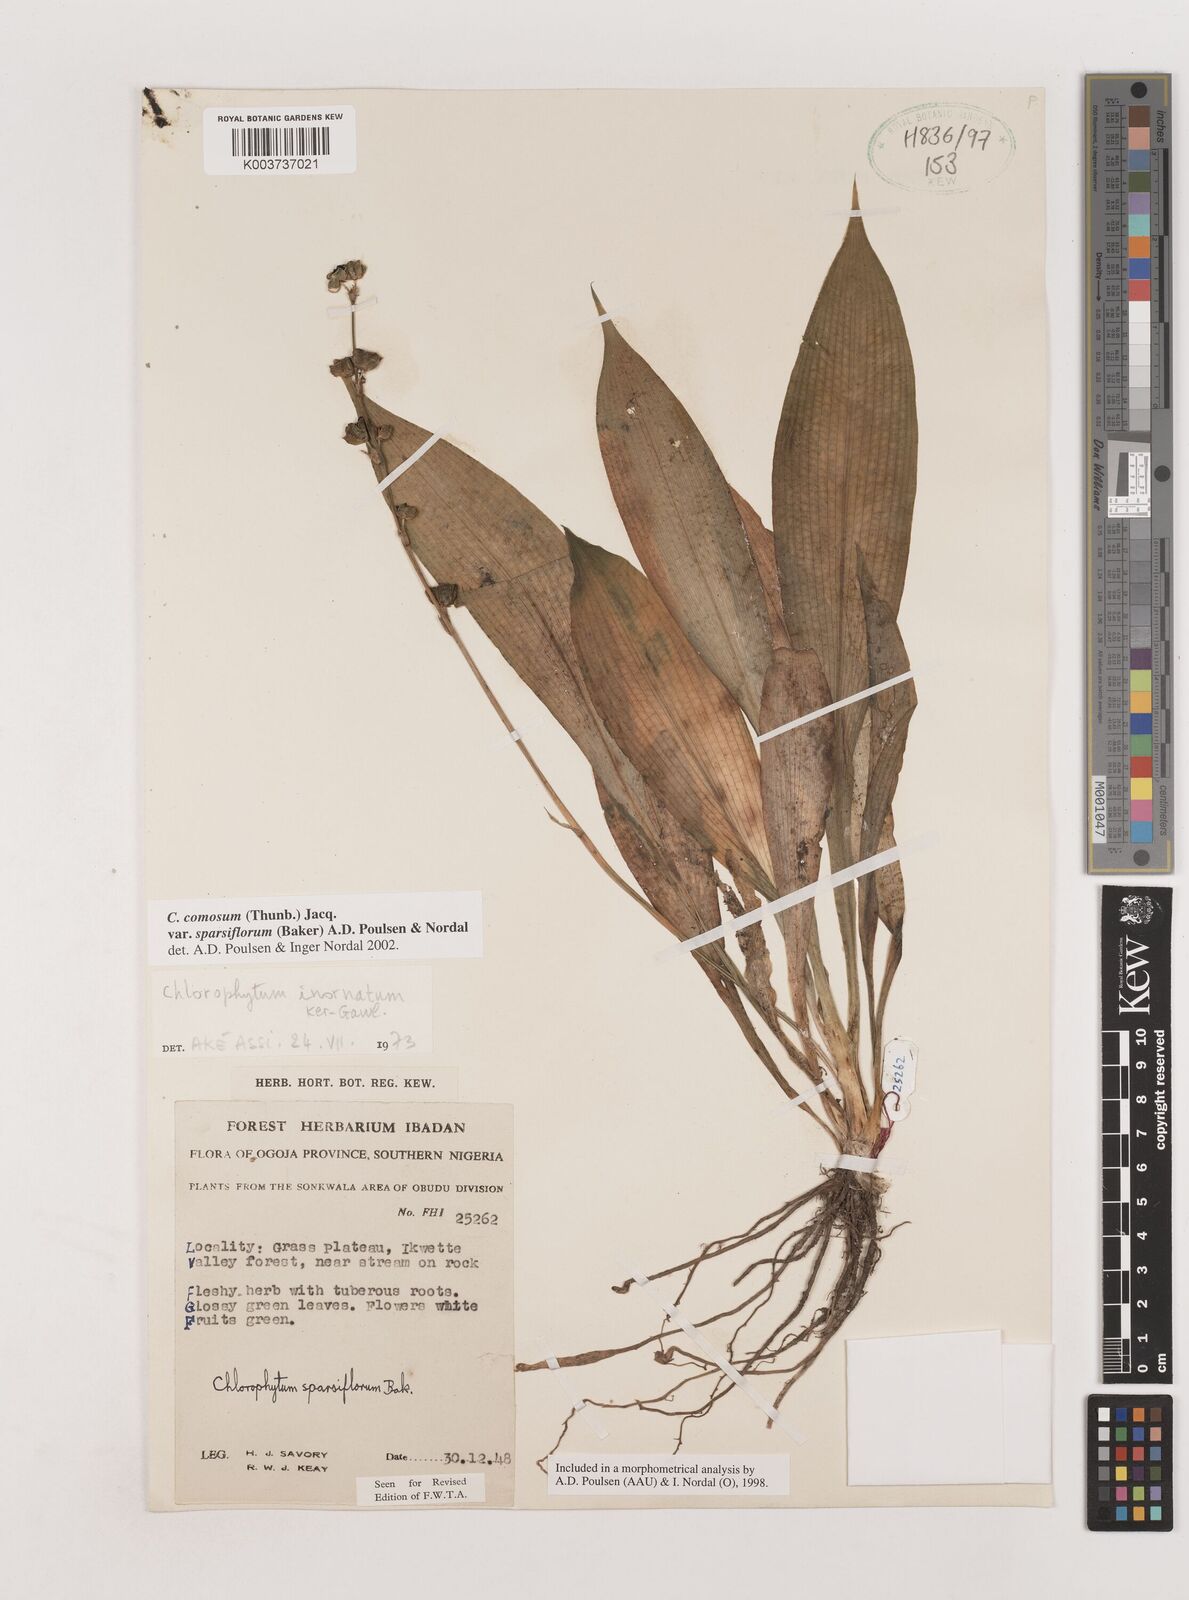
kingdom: Plantae
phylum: Tracheophyta
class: Liliopsida
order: Asparagales
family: Asparagaceae
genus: Chlorophytum
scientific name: Chlorophytum sparsiflorum
